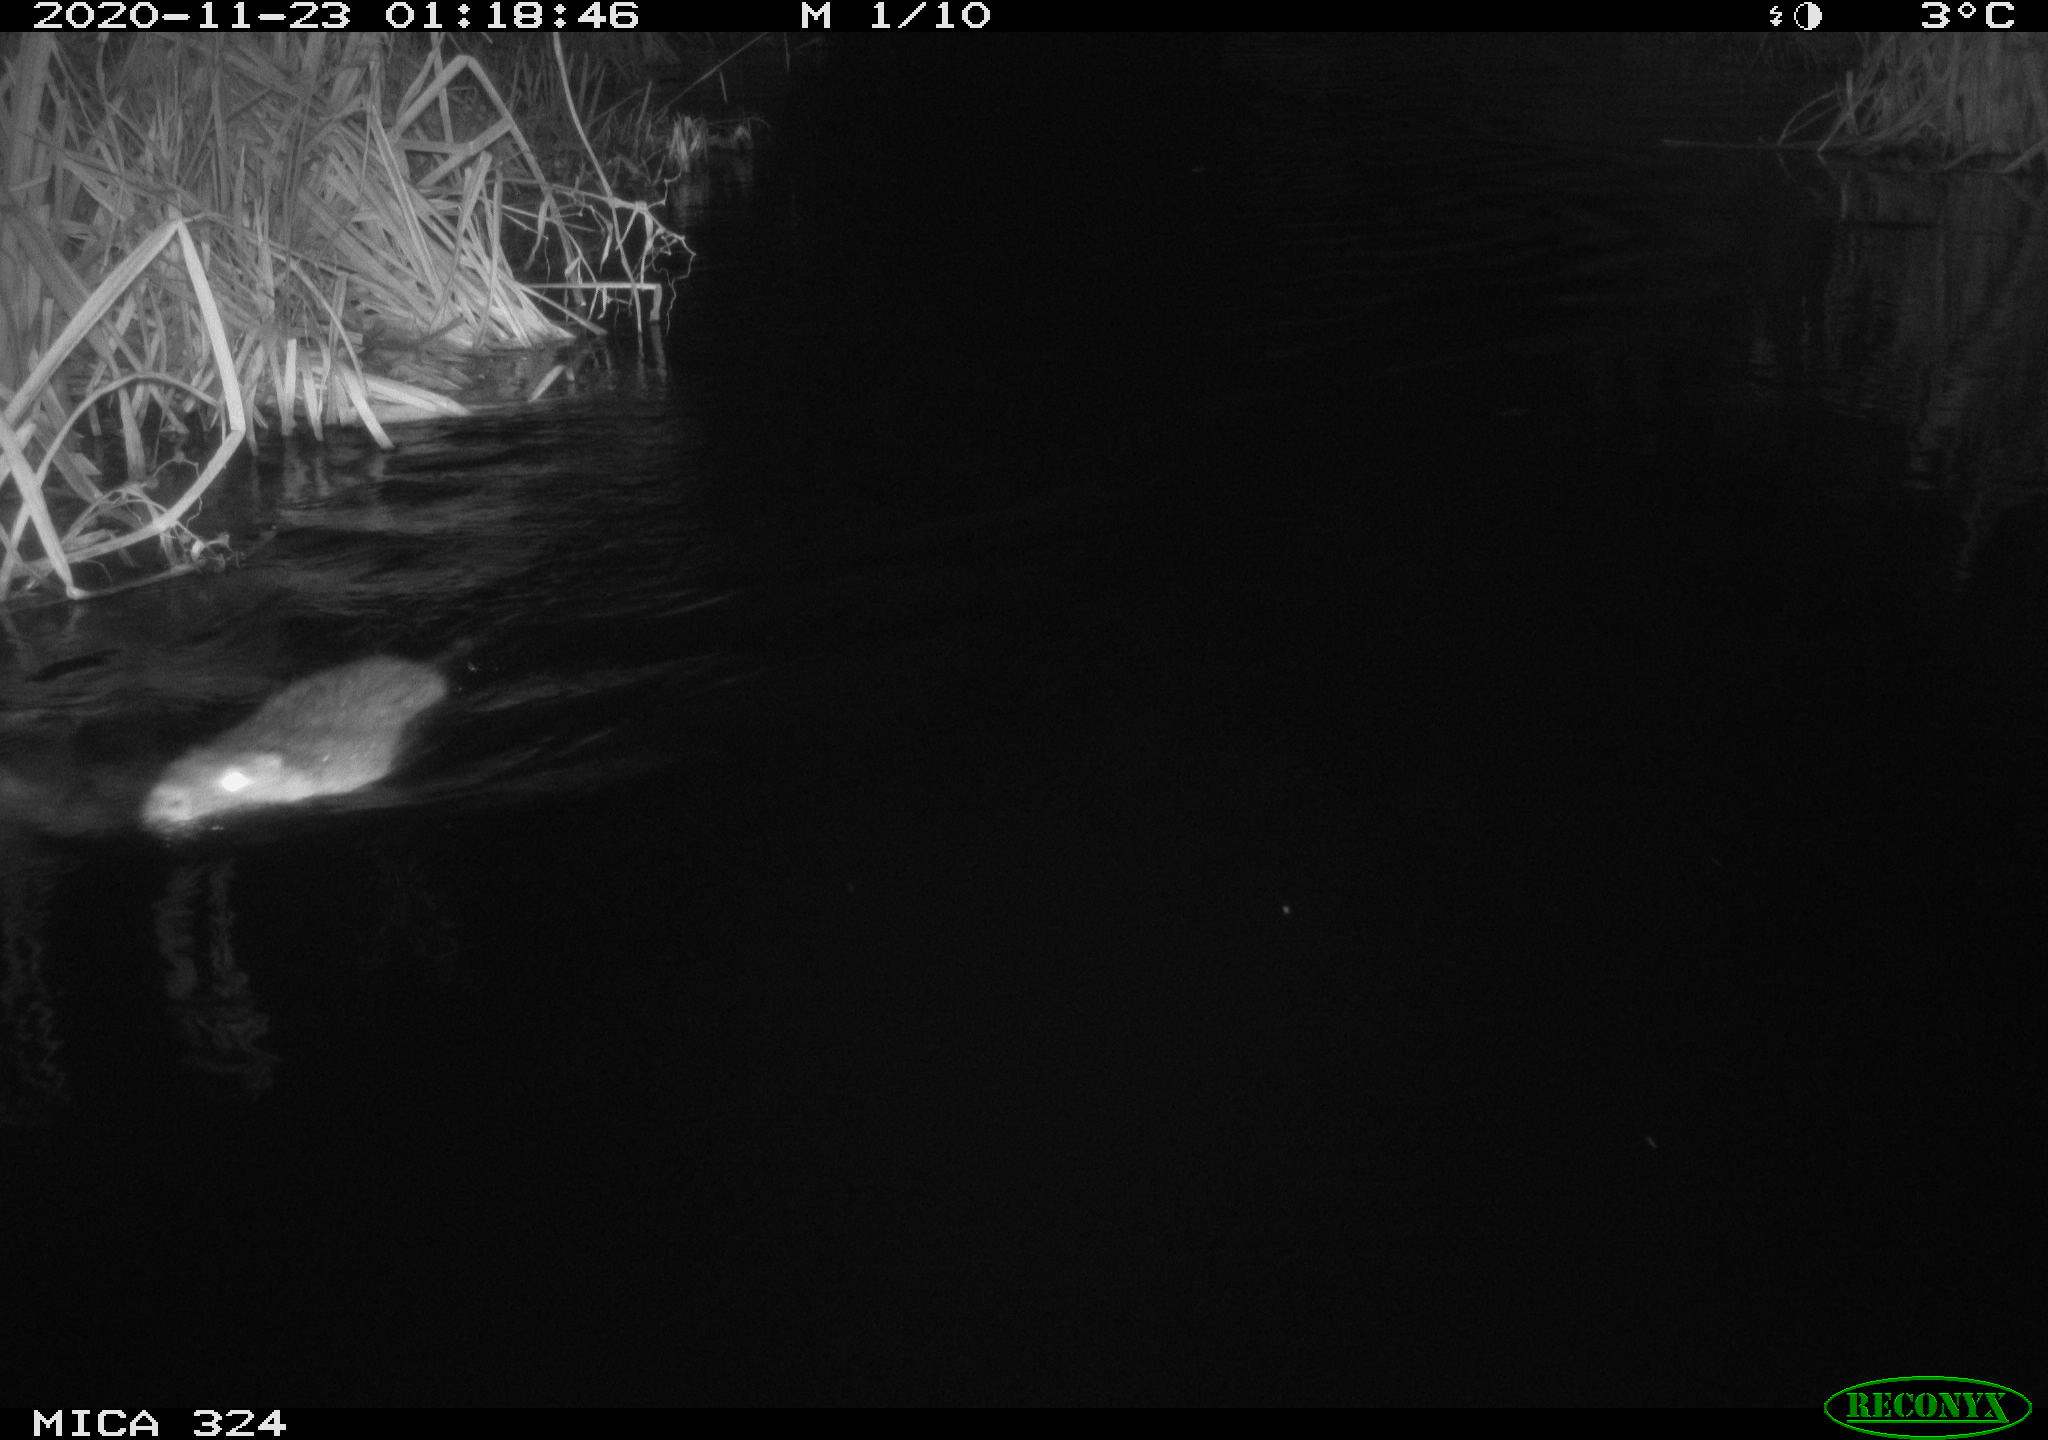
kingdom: Animalia
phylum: Chordata
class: Mammalia
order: Rodentia
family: Myocastoridae
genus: Myocastor
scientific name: Myocastor coypus
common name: Coypu
